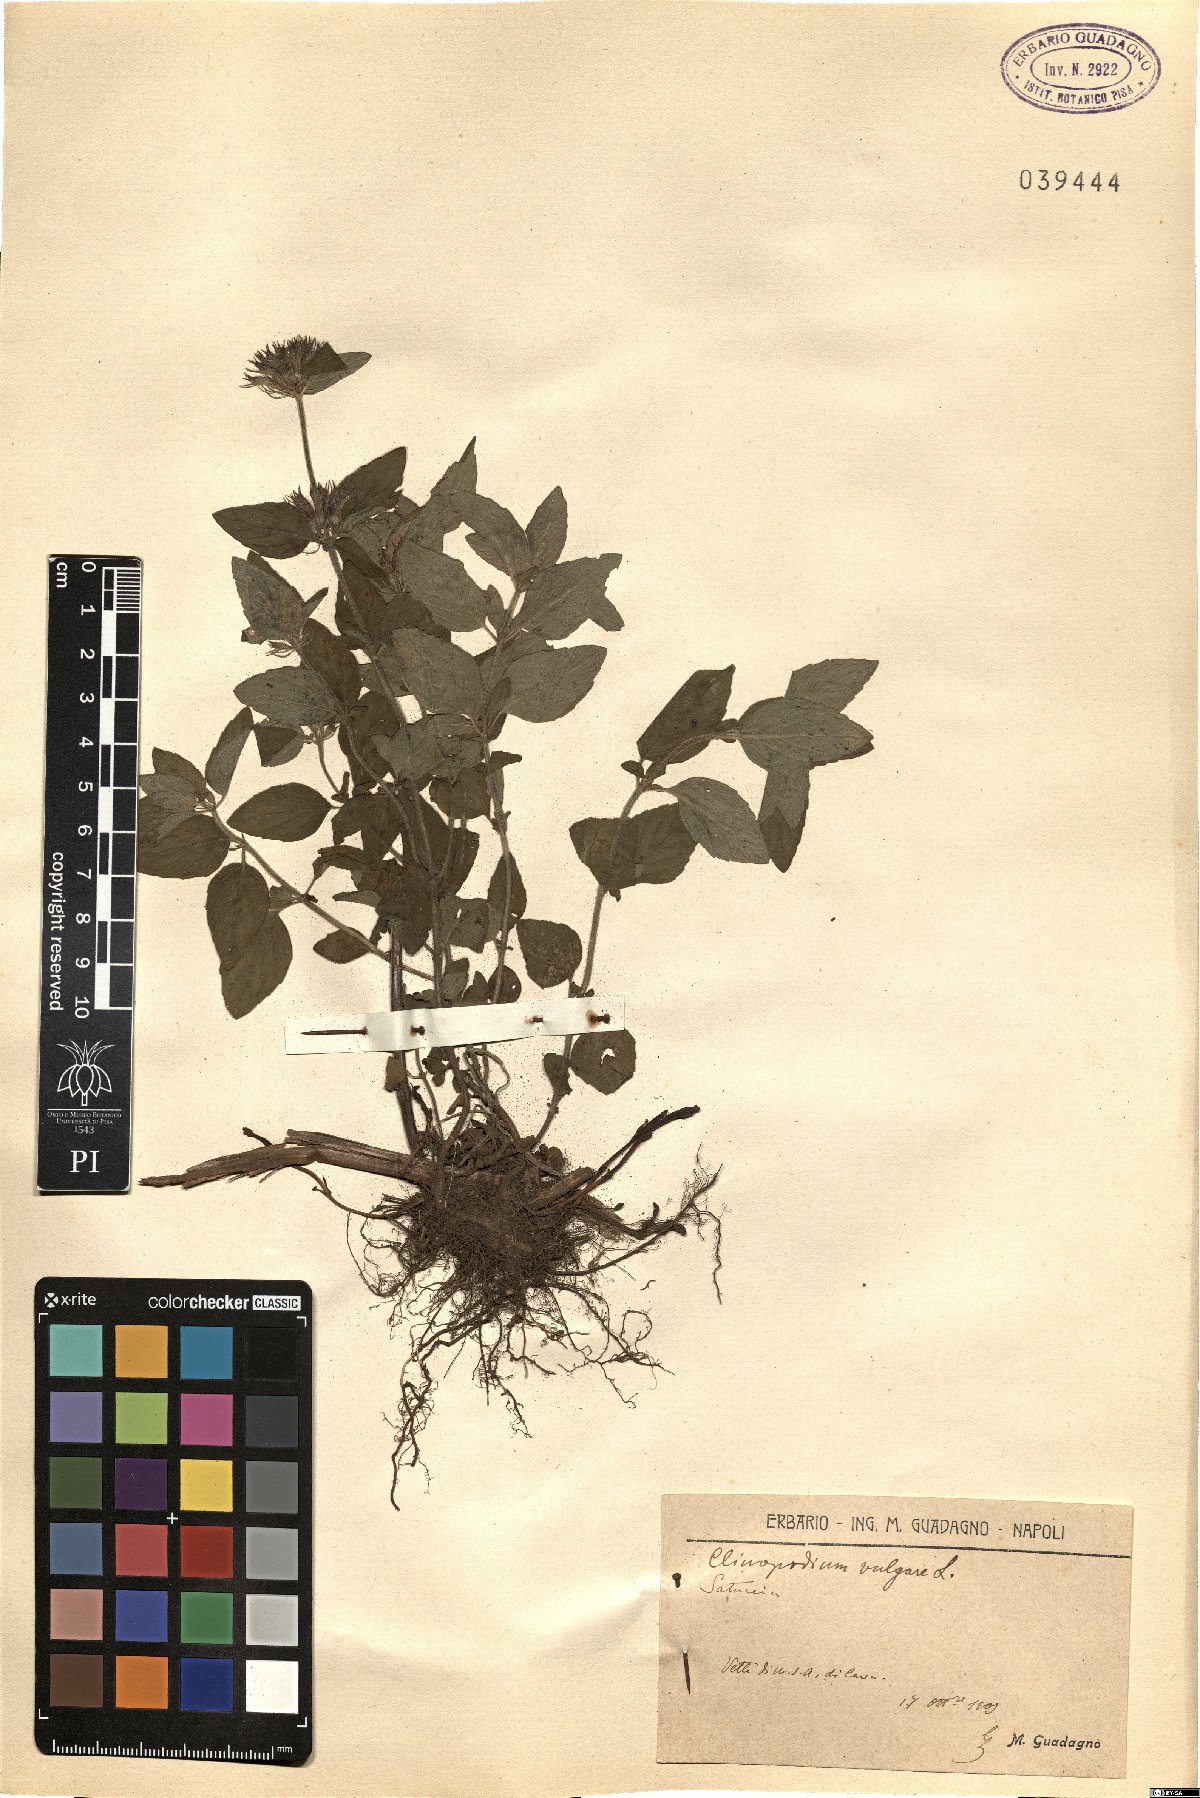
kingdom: Plantae
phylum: Tracheophyta
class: Magnoliopsida
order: Lamiales
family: Lamiaceae
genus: Clinopodium
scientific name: Clinopodium vulgare
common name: Wild basil
